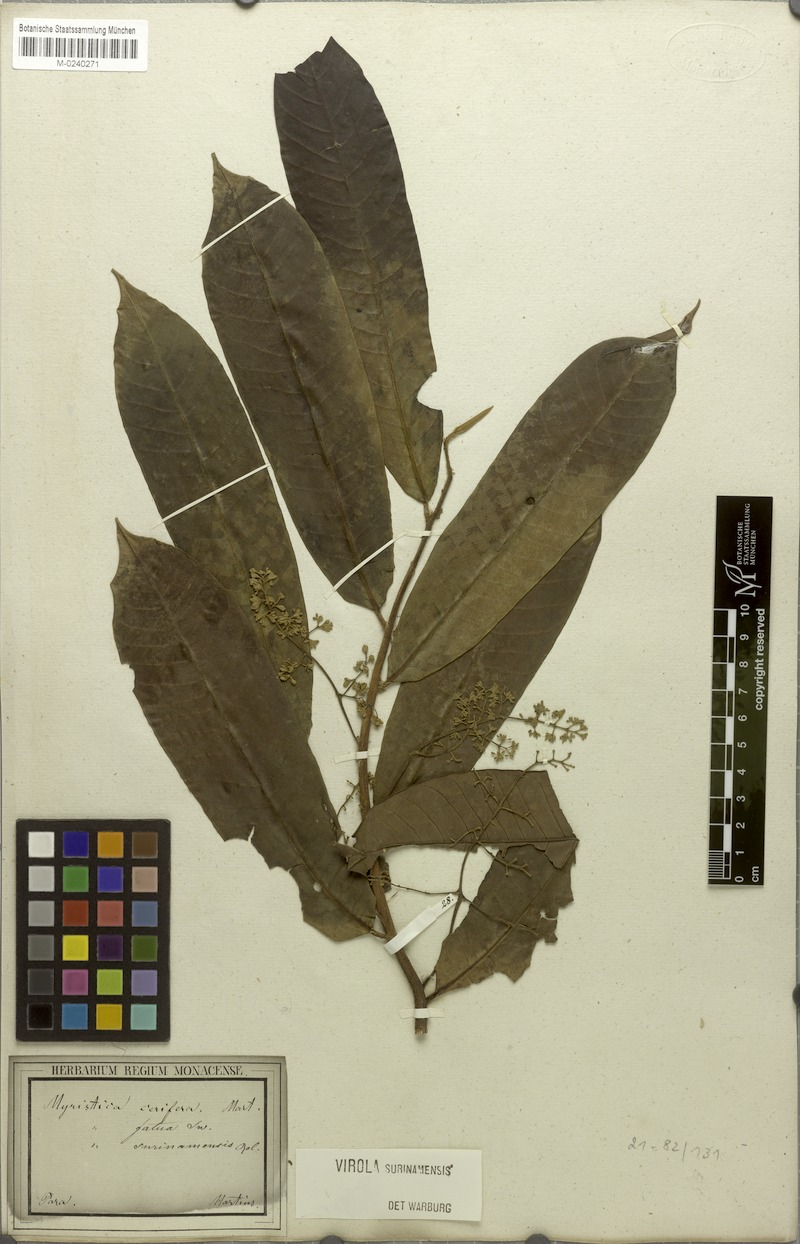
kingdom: Plantae
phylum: Tracheophyta
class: Magnoliopsida
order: Magnoliales
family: Myristicaceae
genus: Virola
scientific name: Virola surinamensis
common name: Baboonwood
